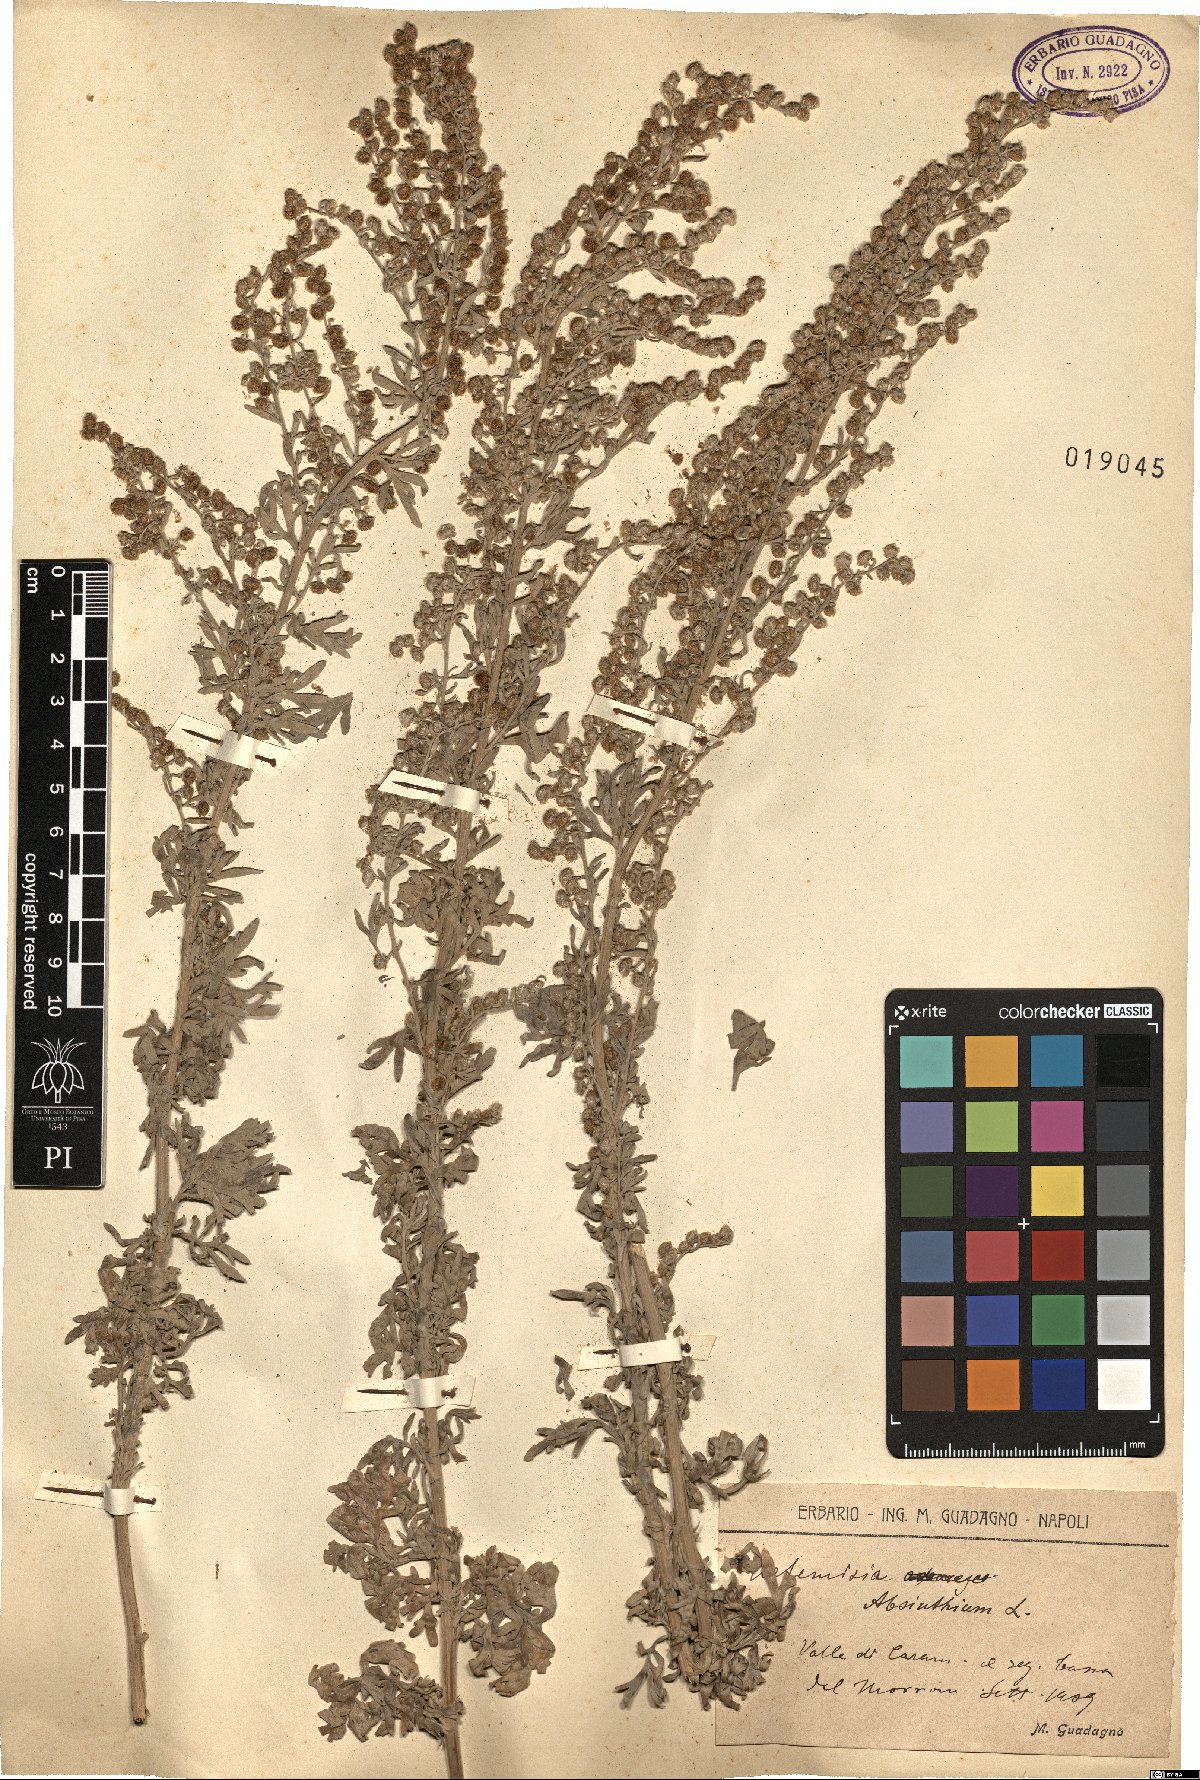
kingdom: Plantae
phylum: Tracheophyta
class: Magnoliopsida
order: Asterales
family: Asteraceae
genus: Artemisia
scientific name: Artemisia absinthium
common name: Wormwood
